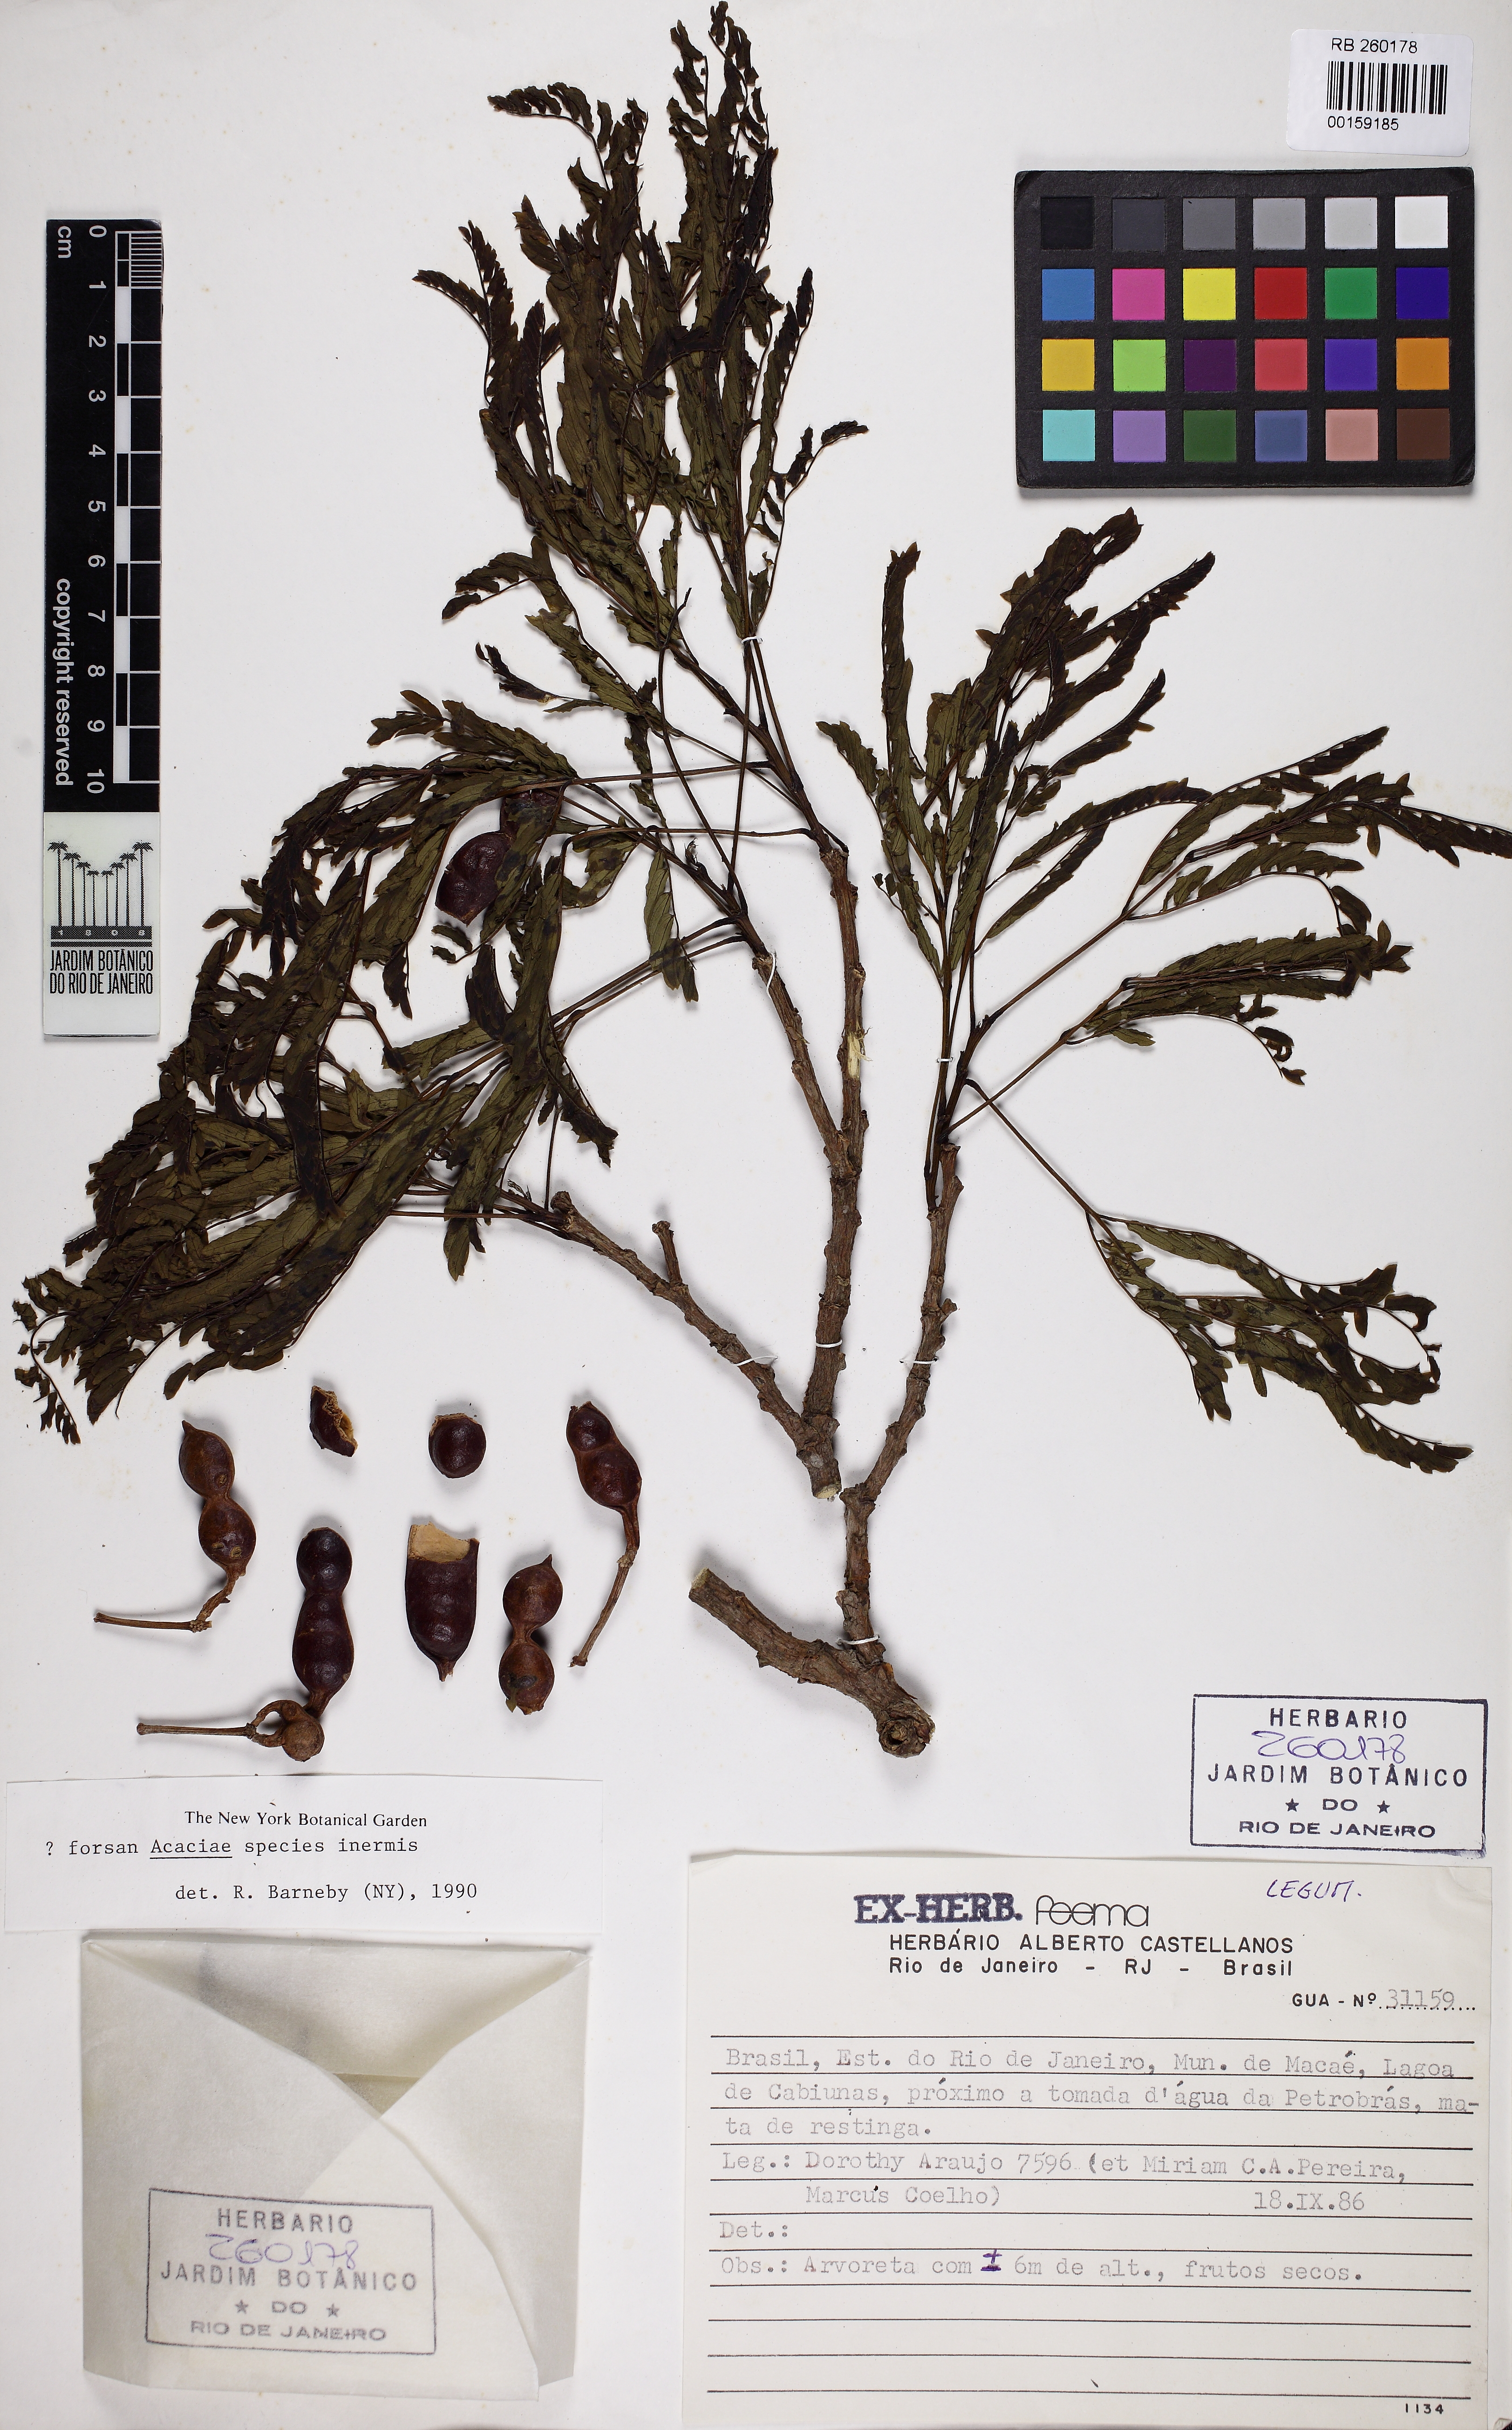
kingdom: Plantae
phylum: Tracheophyta
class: Magnoliopsida
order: Fabales
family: Fabaceae
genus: Acacia
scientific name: Acacia
